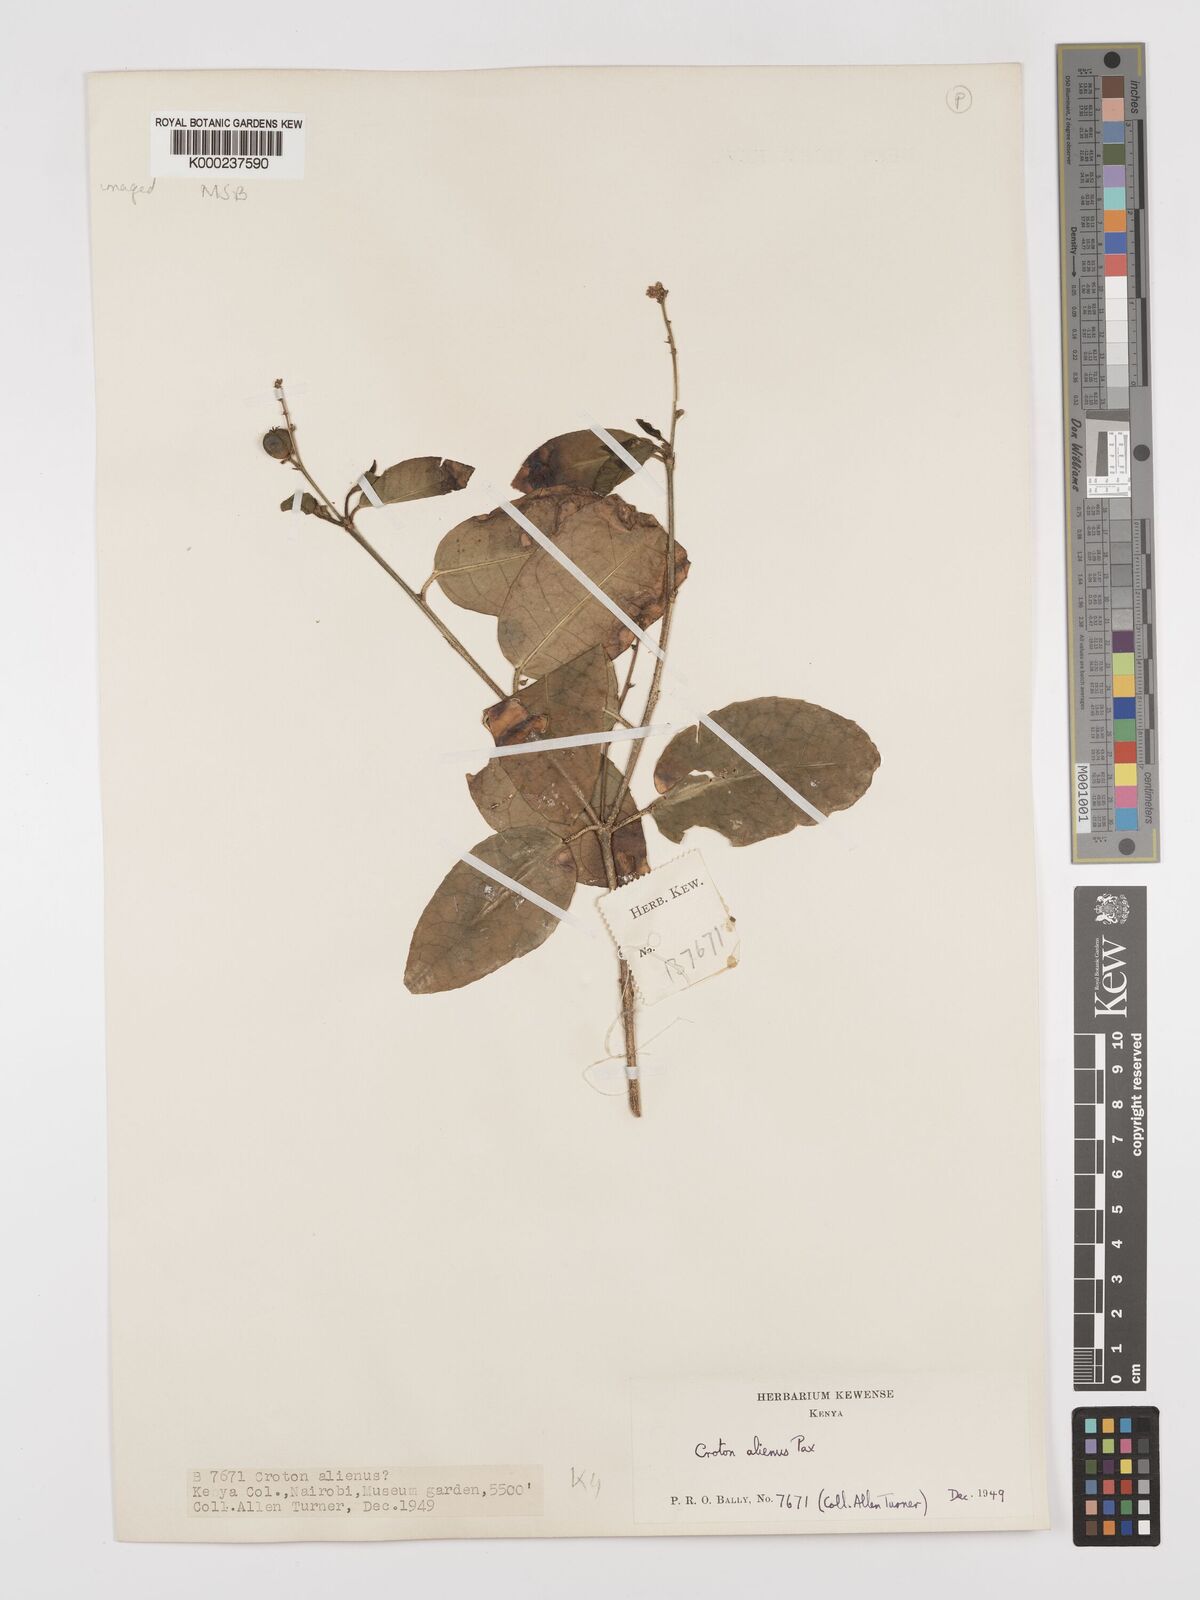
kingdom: Plantae
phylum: Tracheophyta
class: Magnoliopsida
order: Malpighiales
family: Euphorbiaceae
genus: Croton
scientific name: Croton alienus
